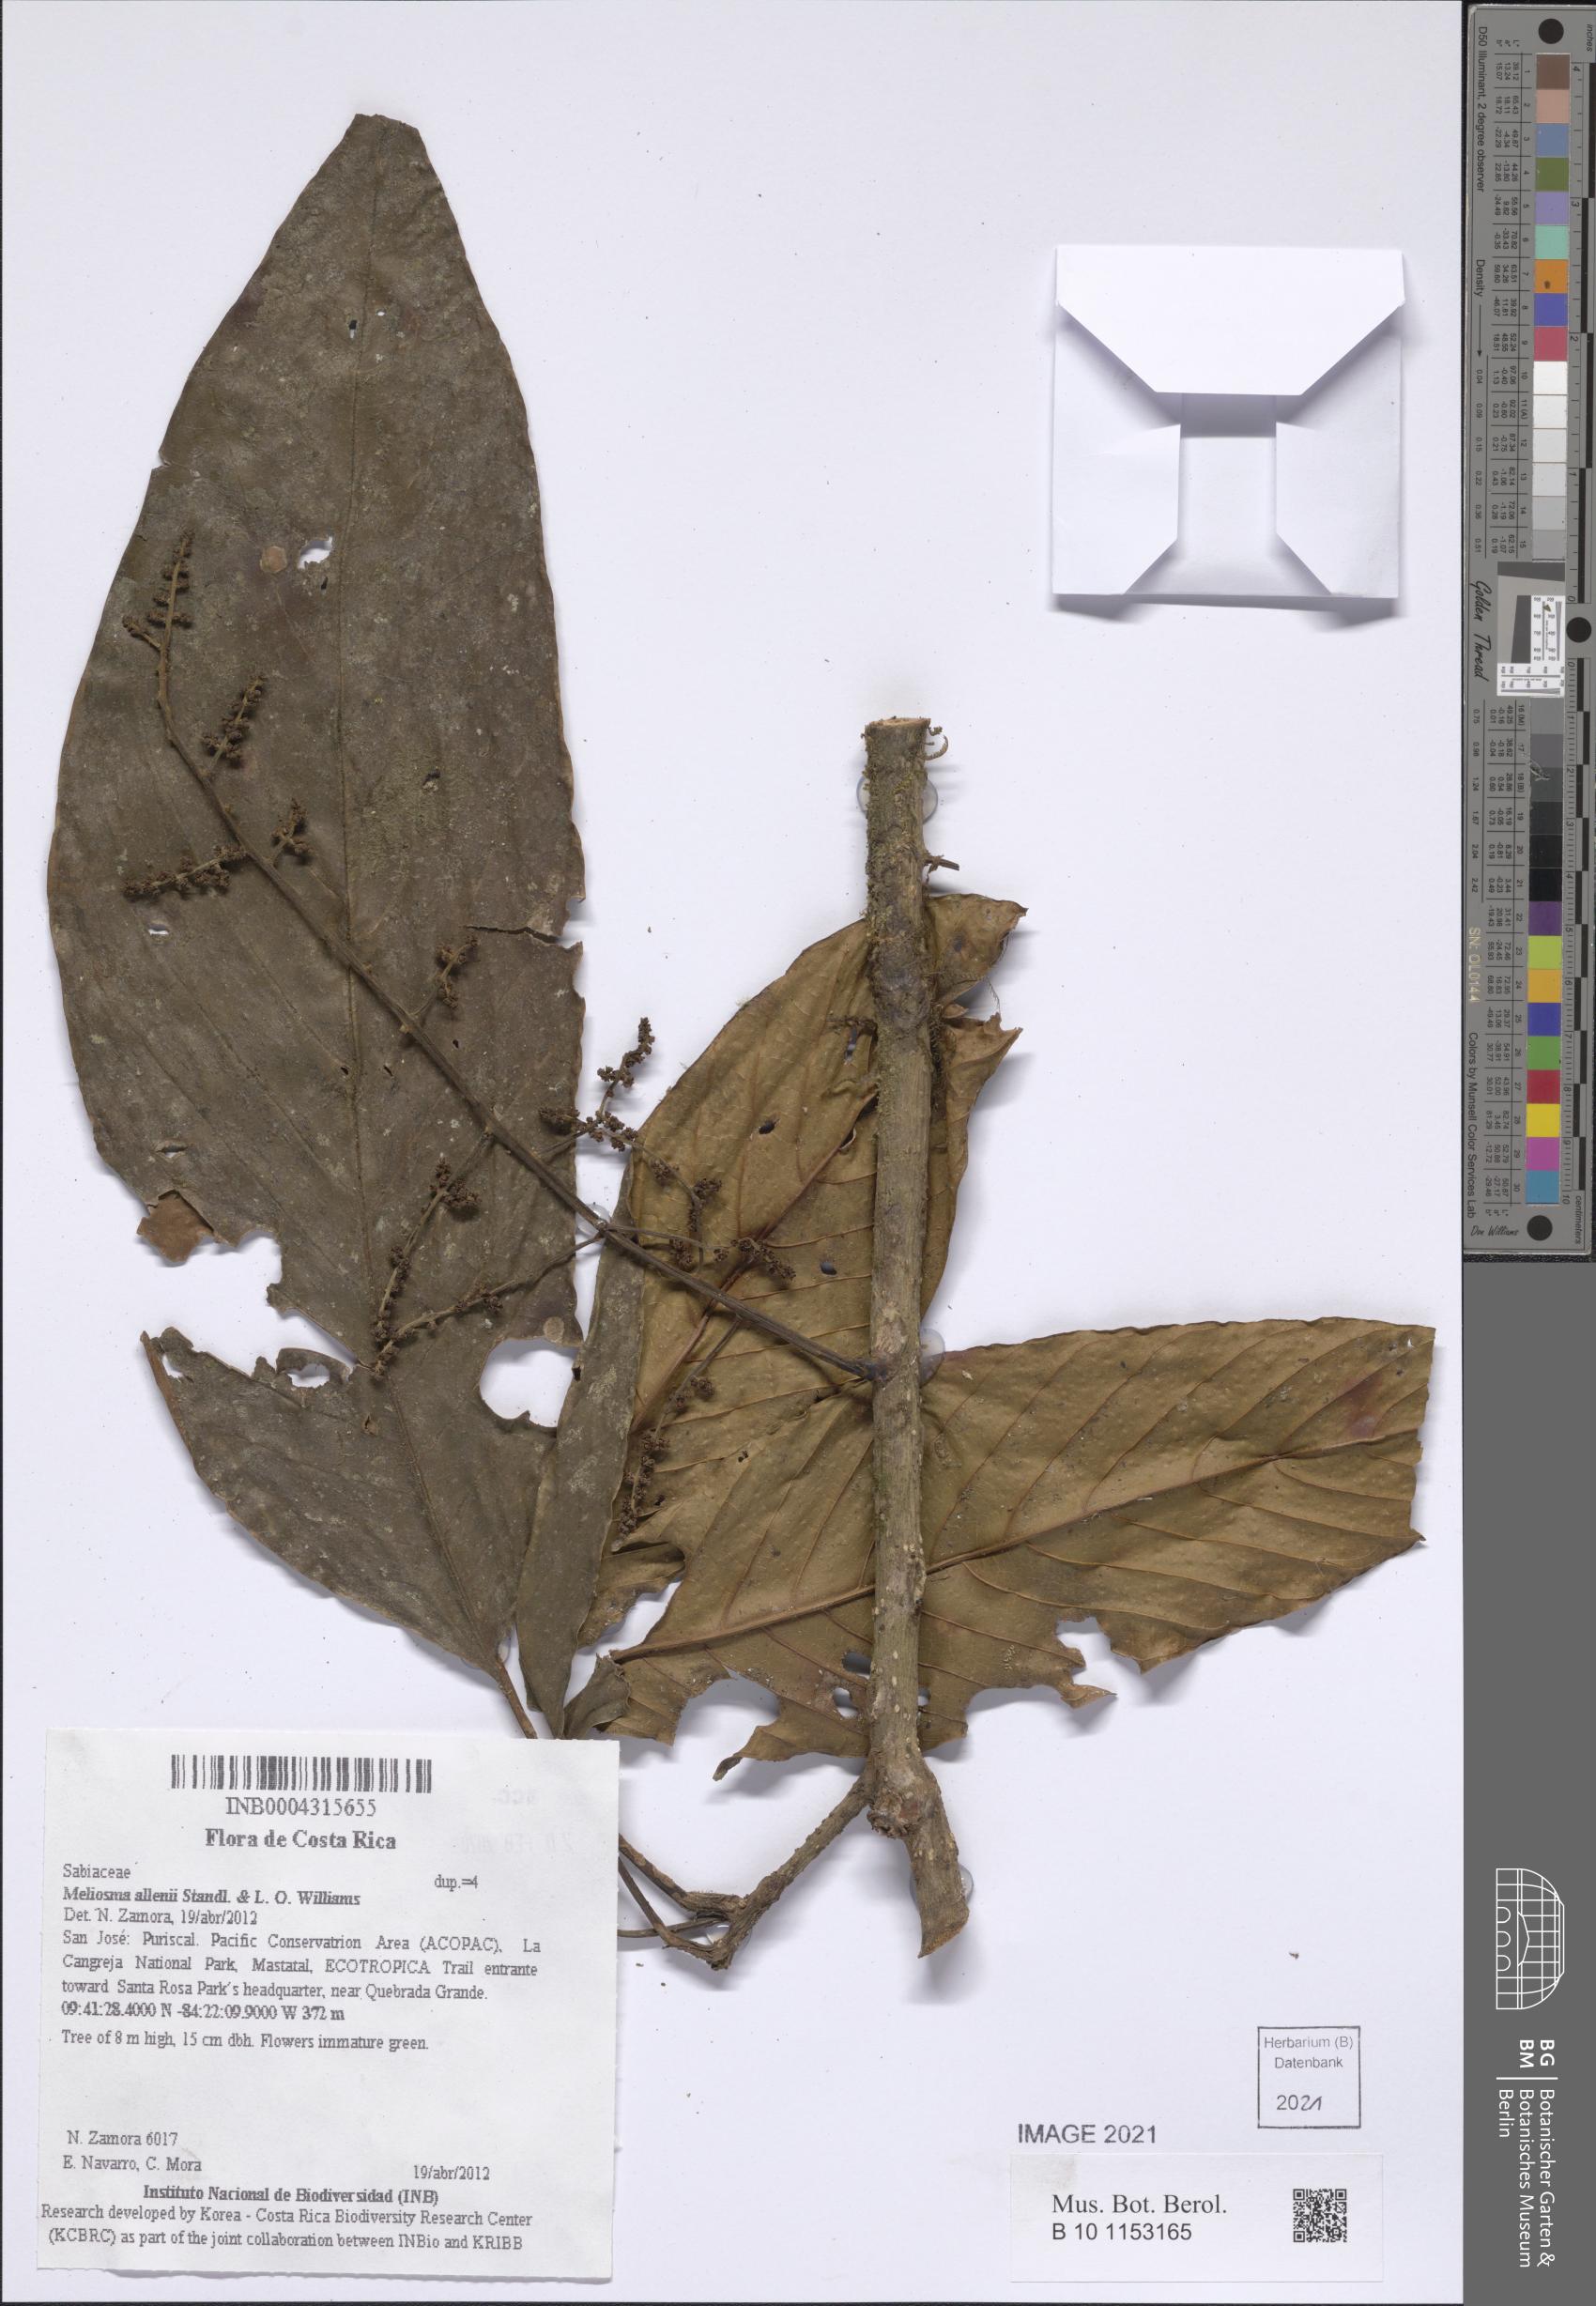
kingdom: Plantae
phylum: Tracheophyta
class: Magnoliopsida
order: Proteales
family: Sabiaceae
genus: Meliosma
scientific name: Meliosma allenii
